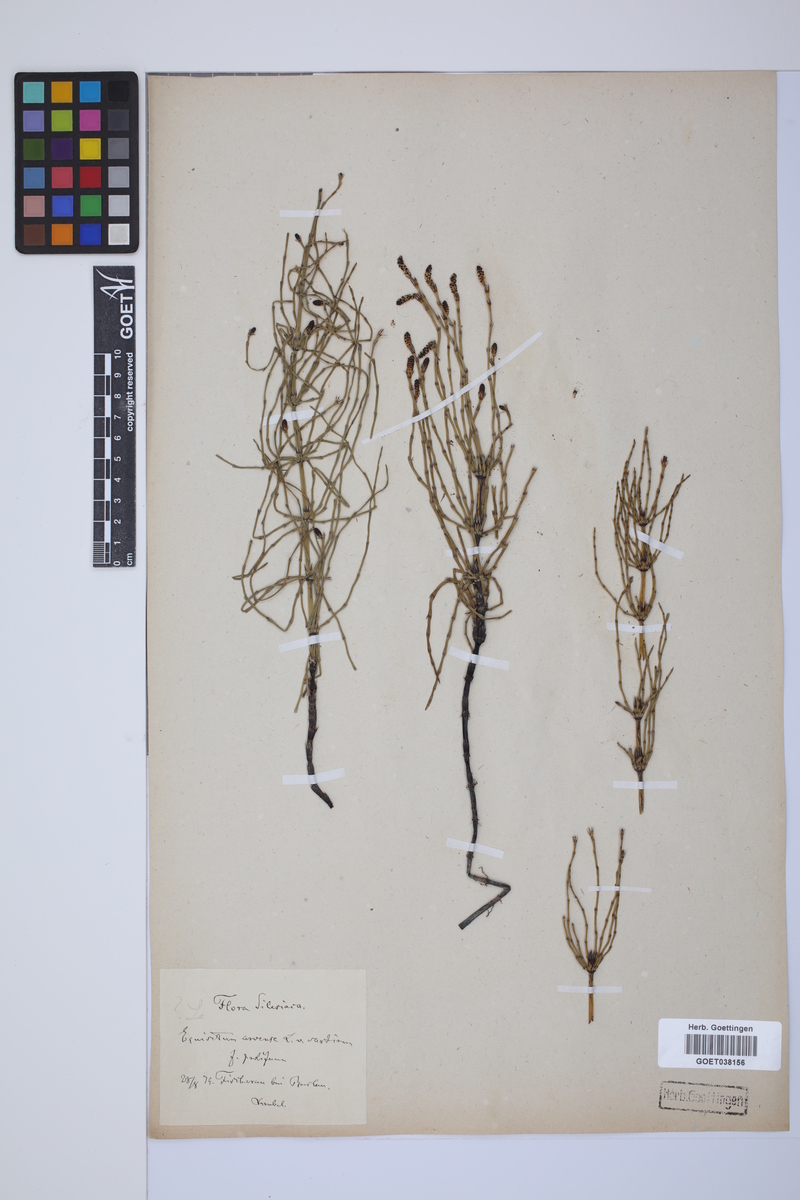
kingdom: Plantae
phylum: Tracheophyta
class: Polypodiopsida
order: Equisetales
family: Equisetaceae
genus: Equisetum
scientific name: Equisetum arvense
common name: Field horsetail
